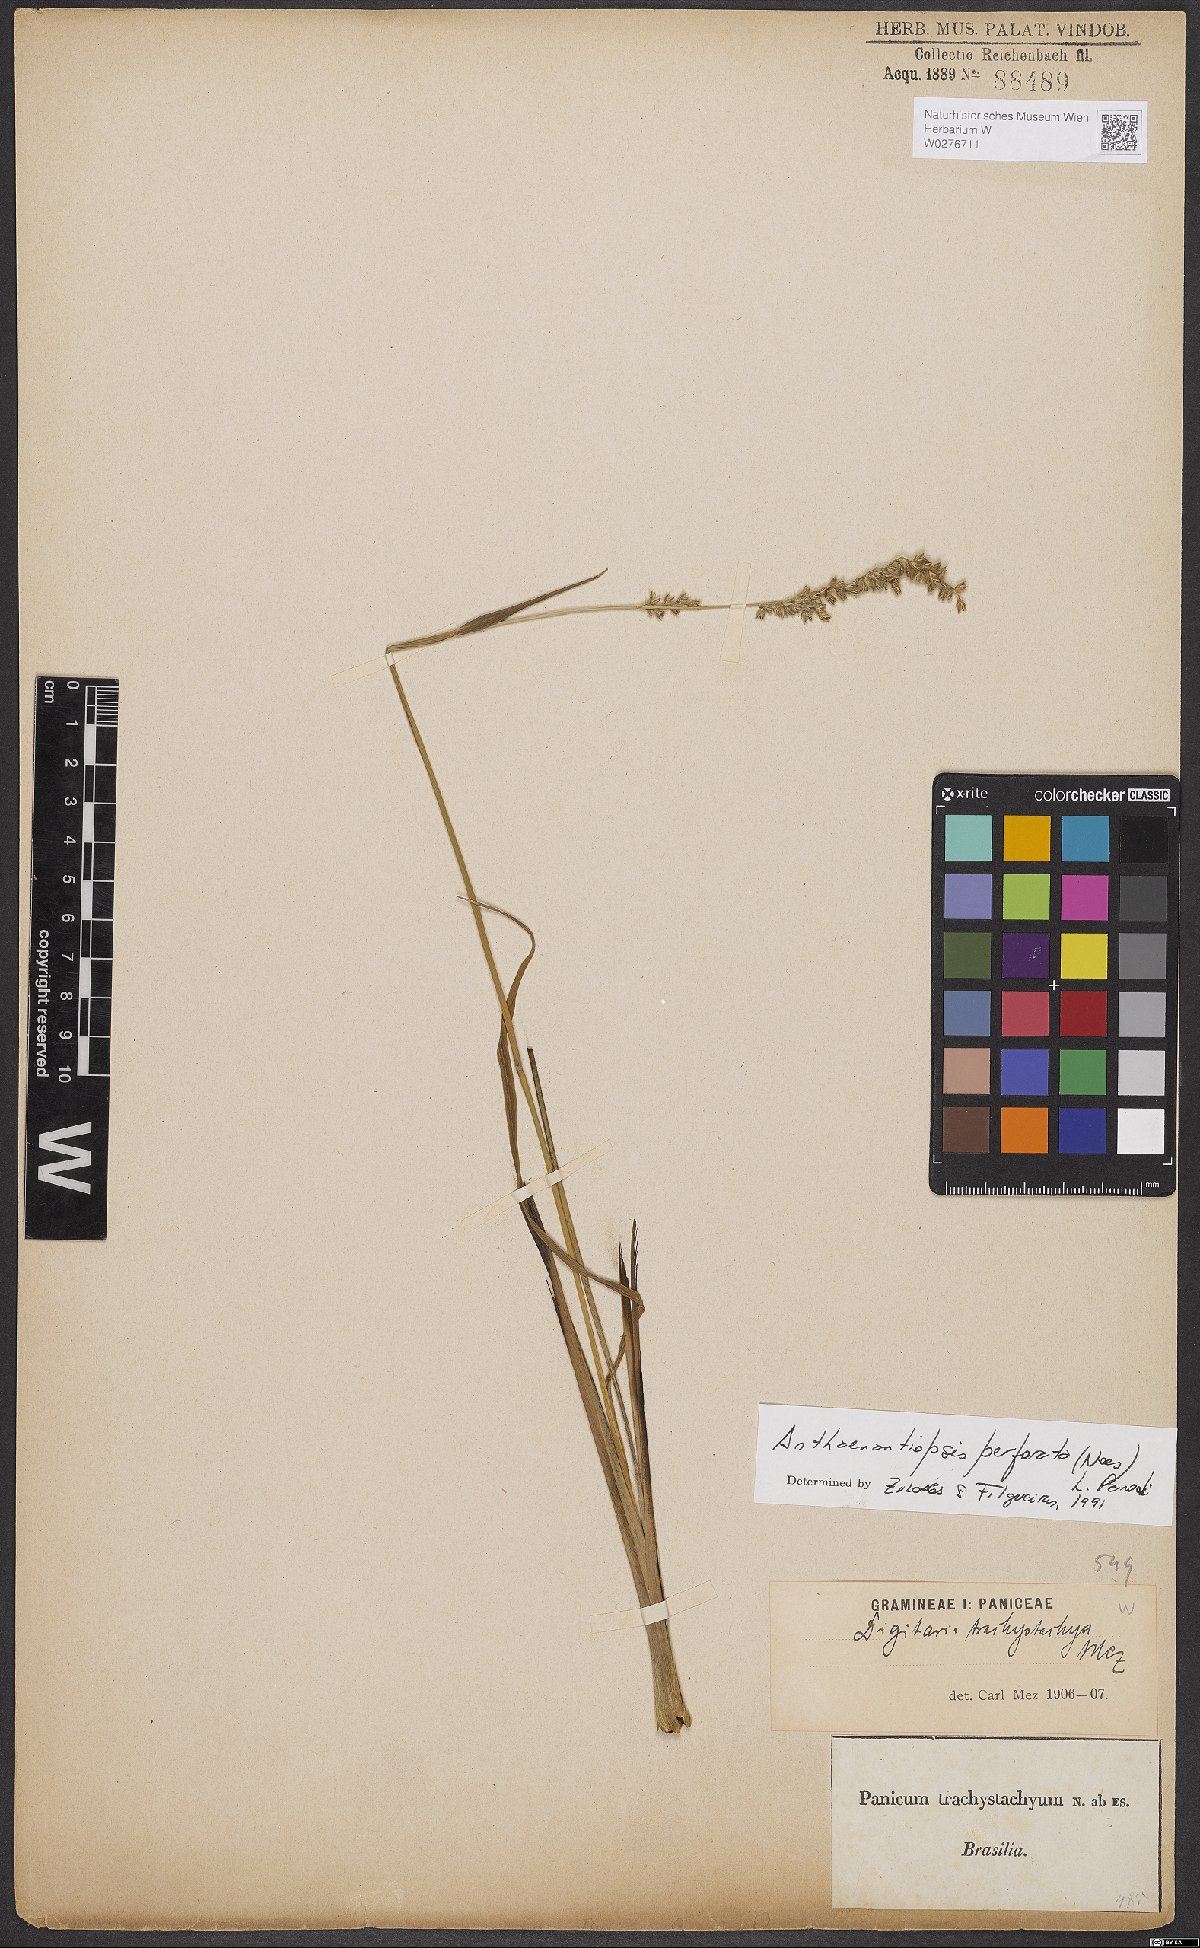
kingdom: Plantae
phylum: Tracheophyta
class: Liliopsida
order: Poales
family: Poaceae
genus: Anthaenantiopsis
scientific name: Anthaenantiopsis perforata
